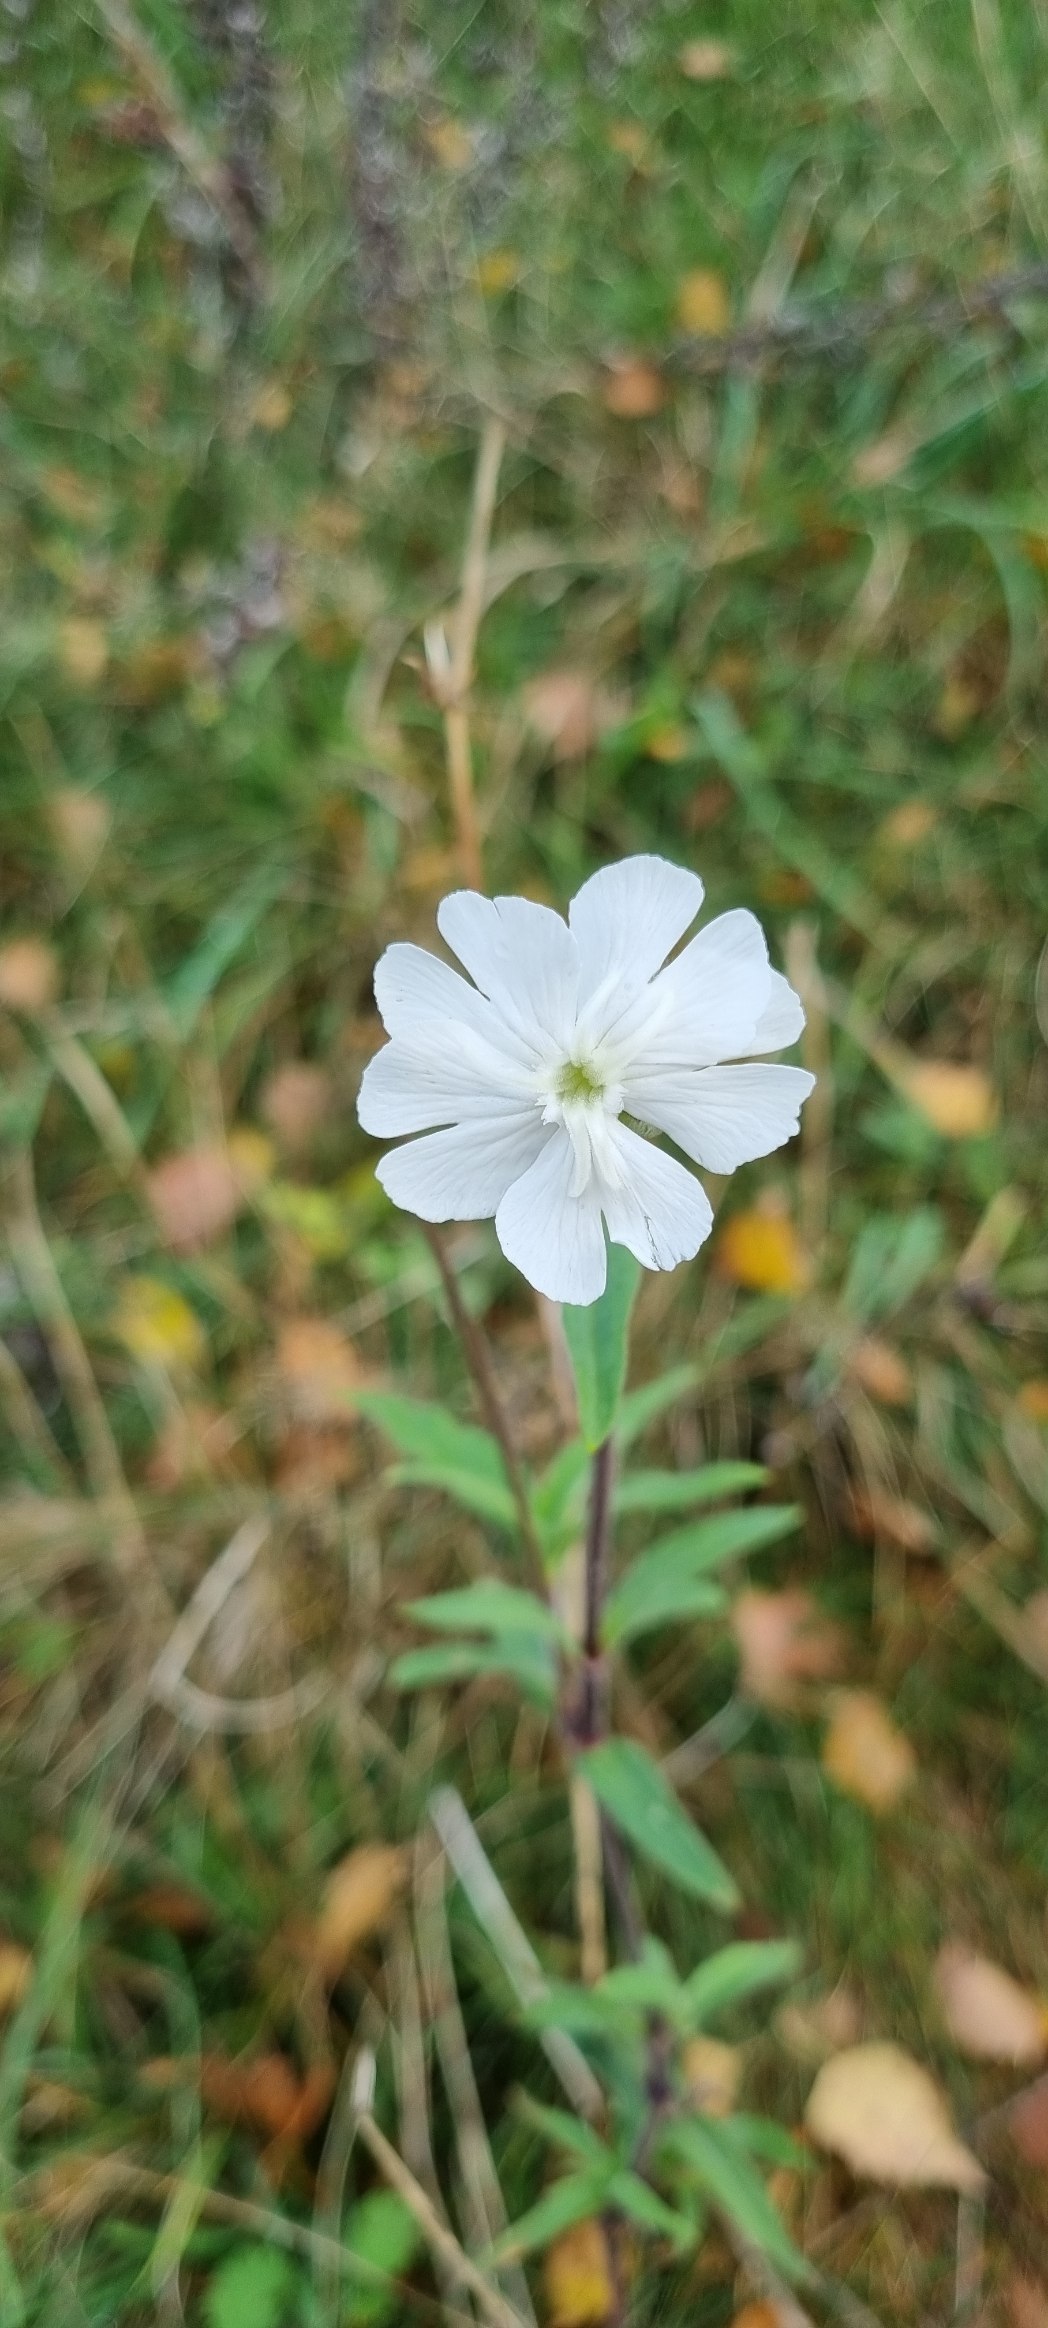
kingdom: Plantae
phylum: Tracheophyta
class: Magnoliopsida
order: Caryophyllales
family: Caryophyllaceae
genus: Silene
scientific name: Silene latifolia
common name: Aftenpragtstjerne
